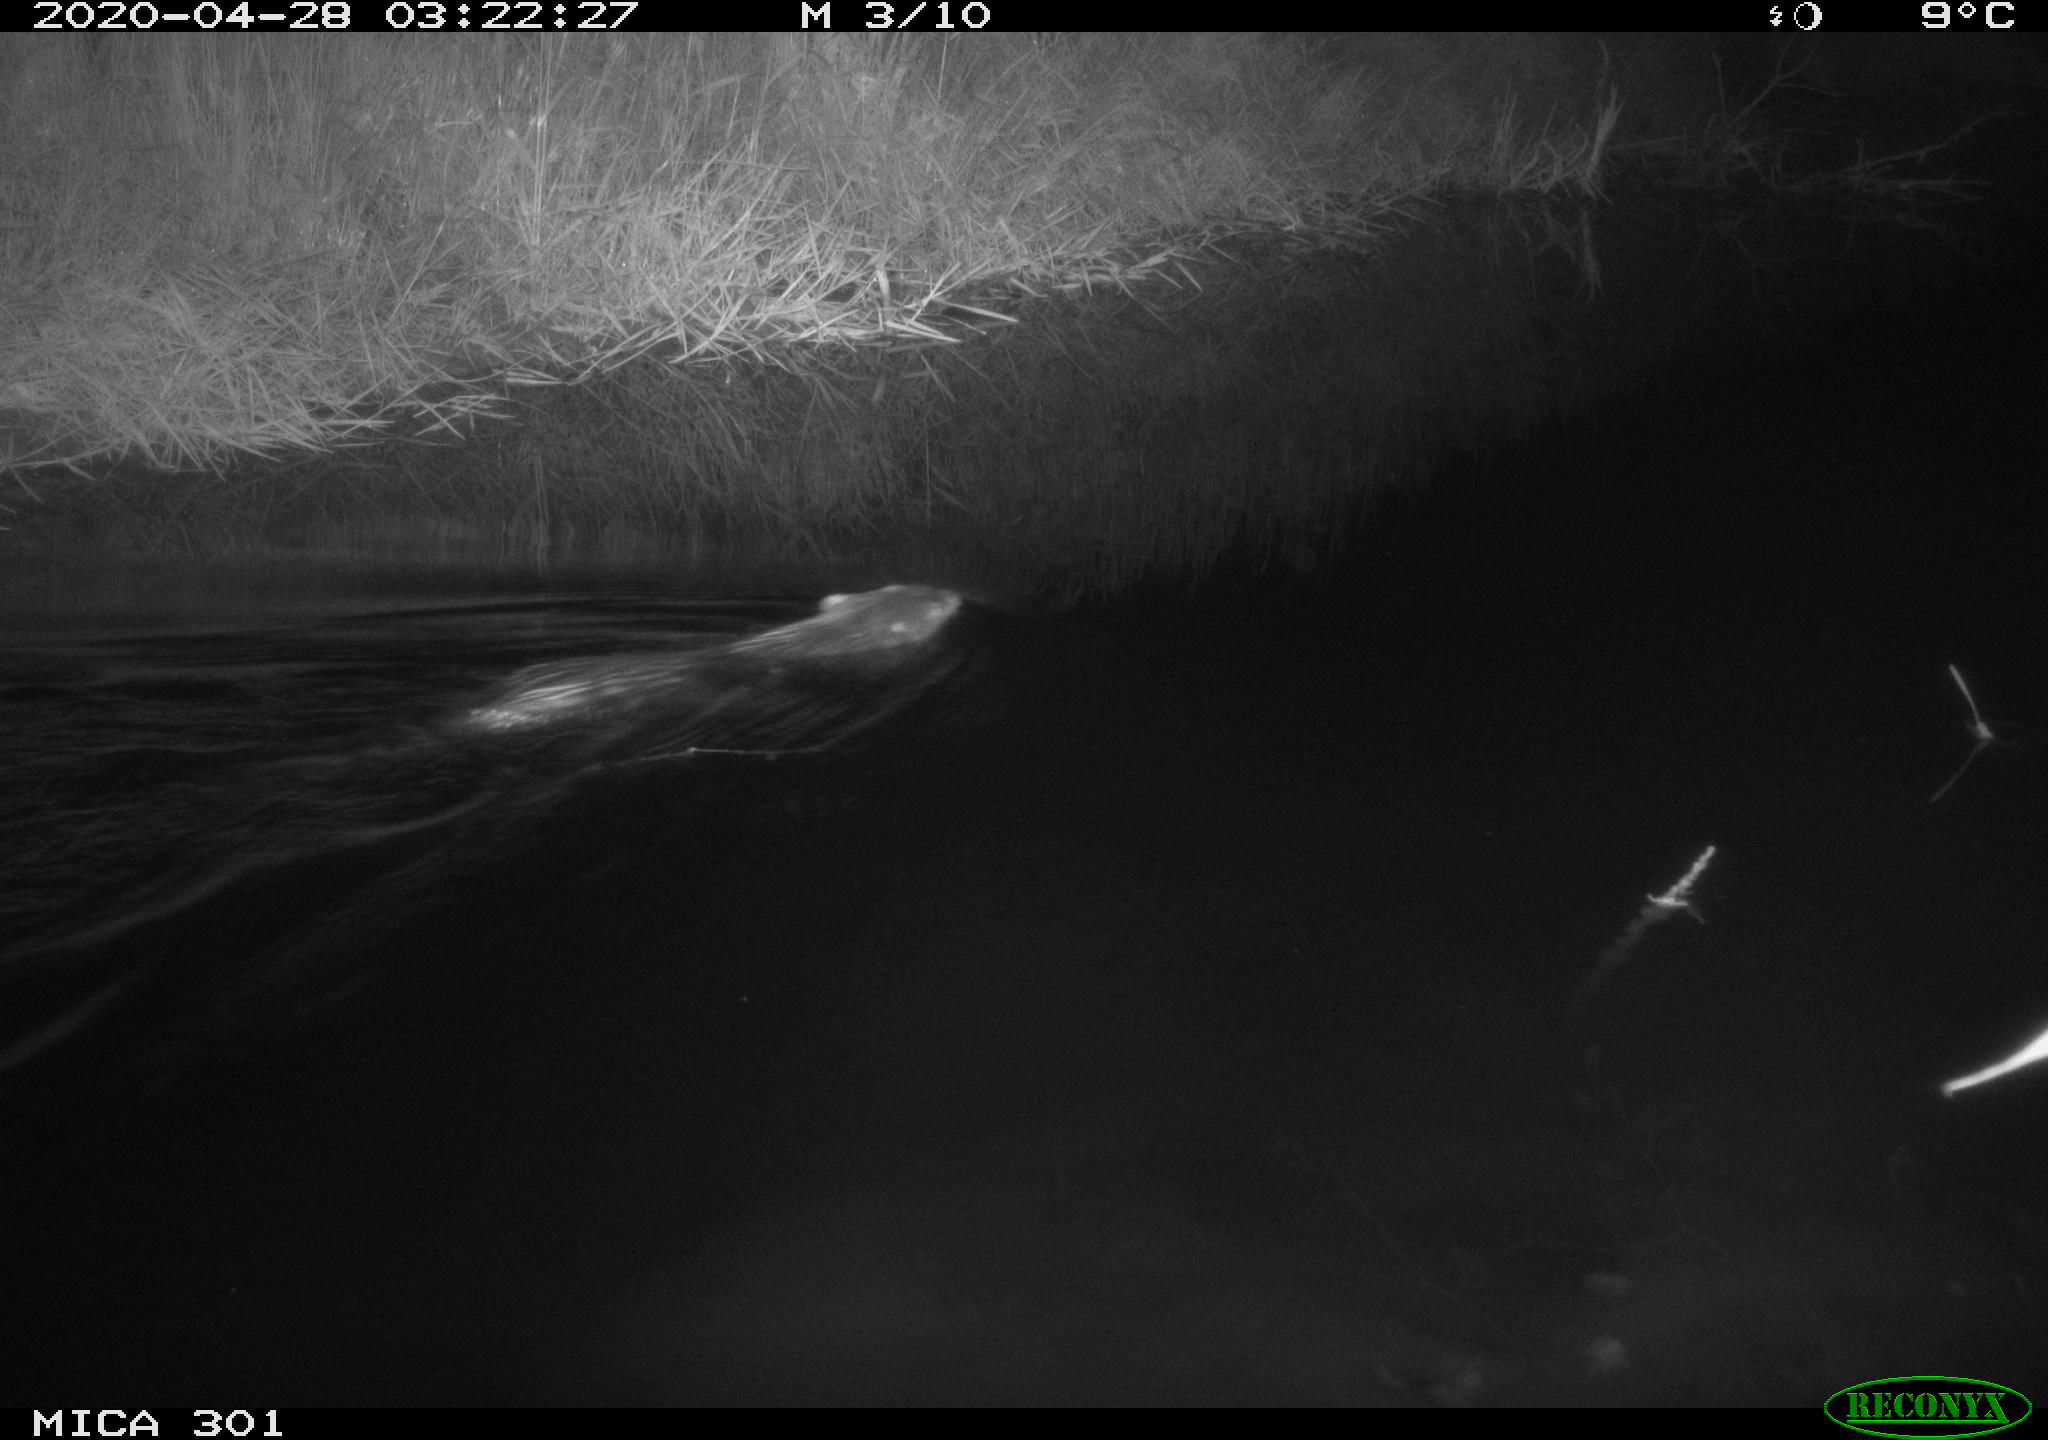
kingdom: Animalia
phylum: Chordata
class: Mammalia
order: Rodentia
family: Castoridae
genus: Castor
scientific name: Castor fiber
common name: Eurasian beaver
